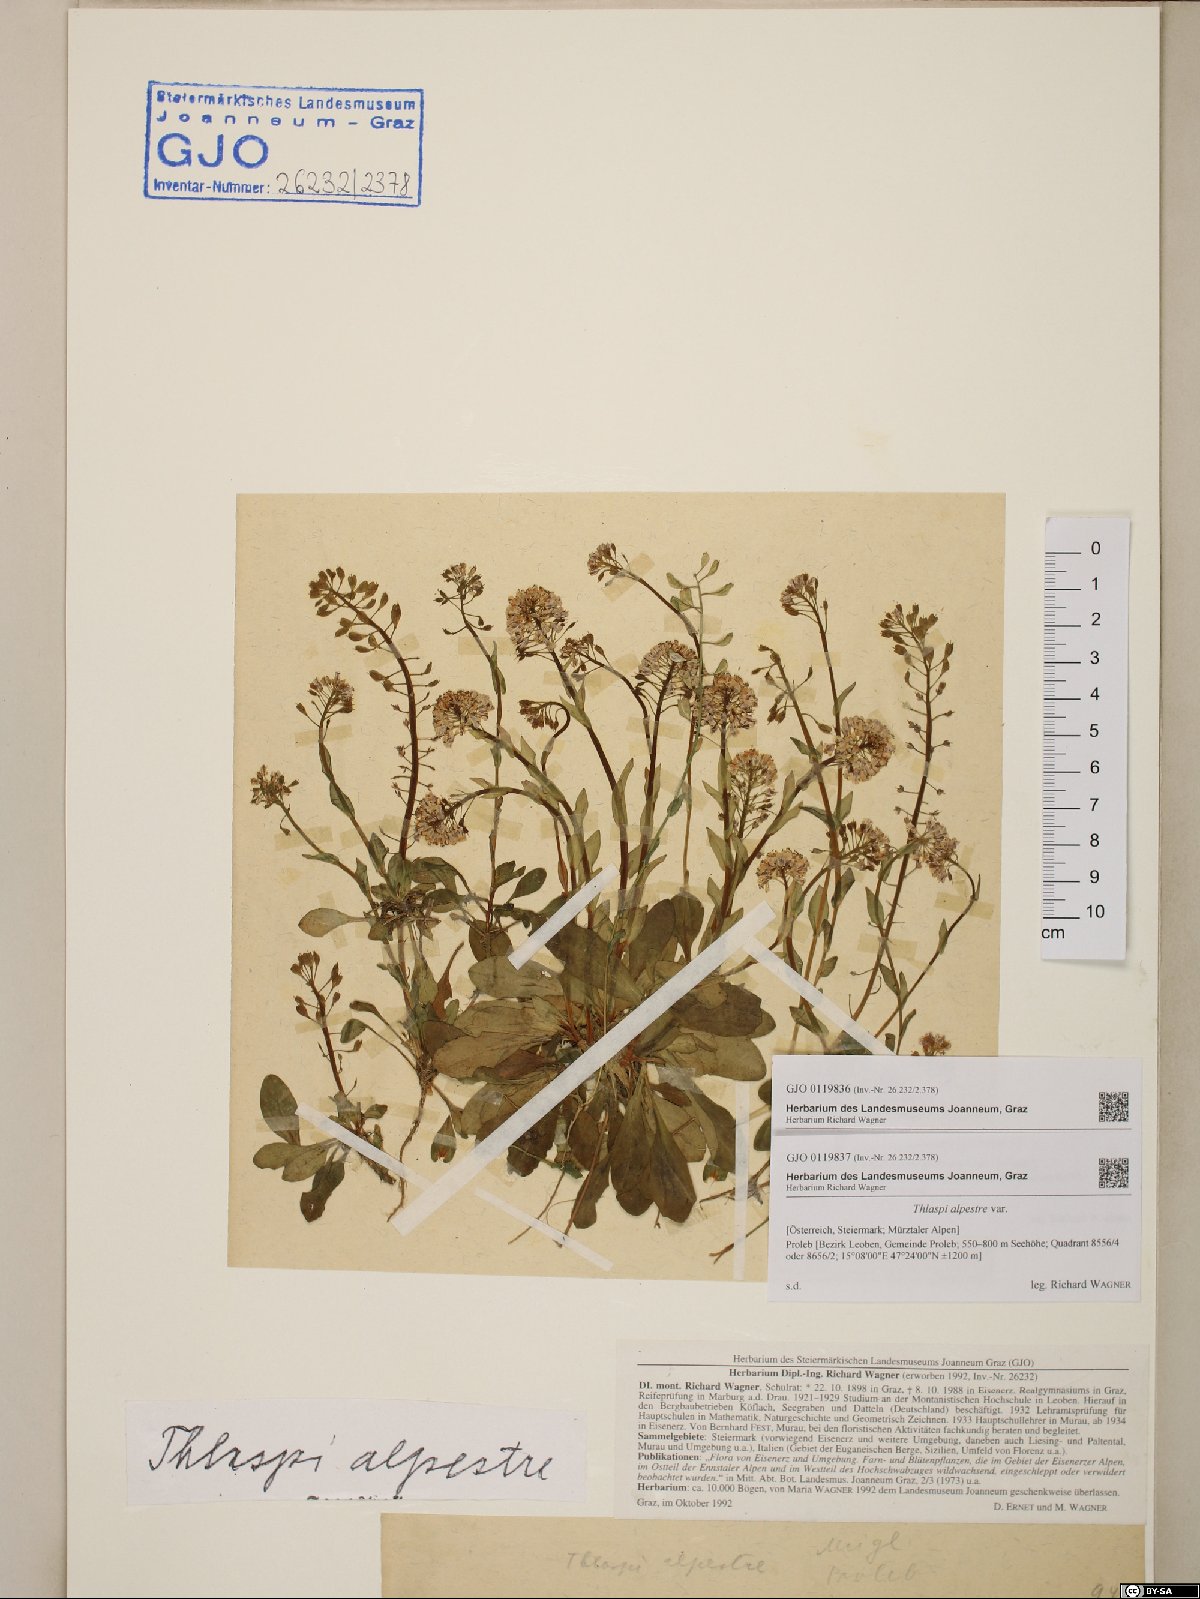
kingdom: Plantae
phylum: Tracheophyta
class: Magnoliopsida
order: Brassicales
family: Brassicaceae
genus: Noccaea
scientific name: Noccaea caerulescens
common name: Alpine pennycress
